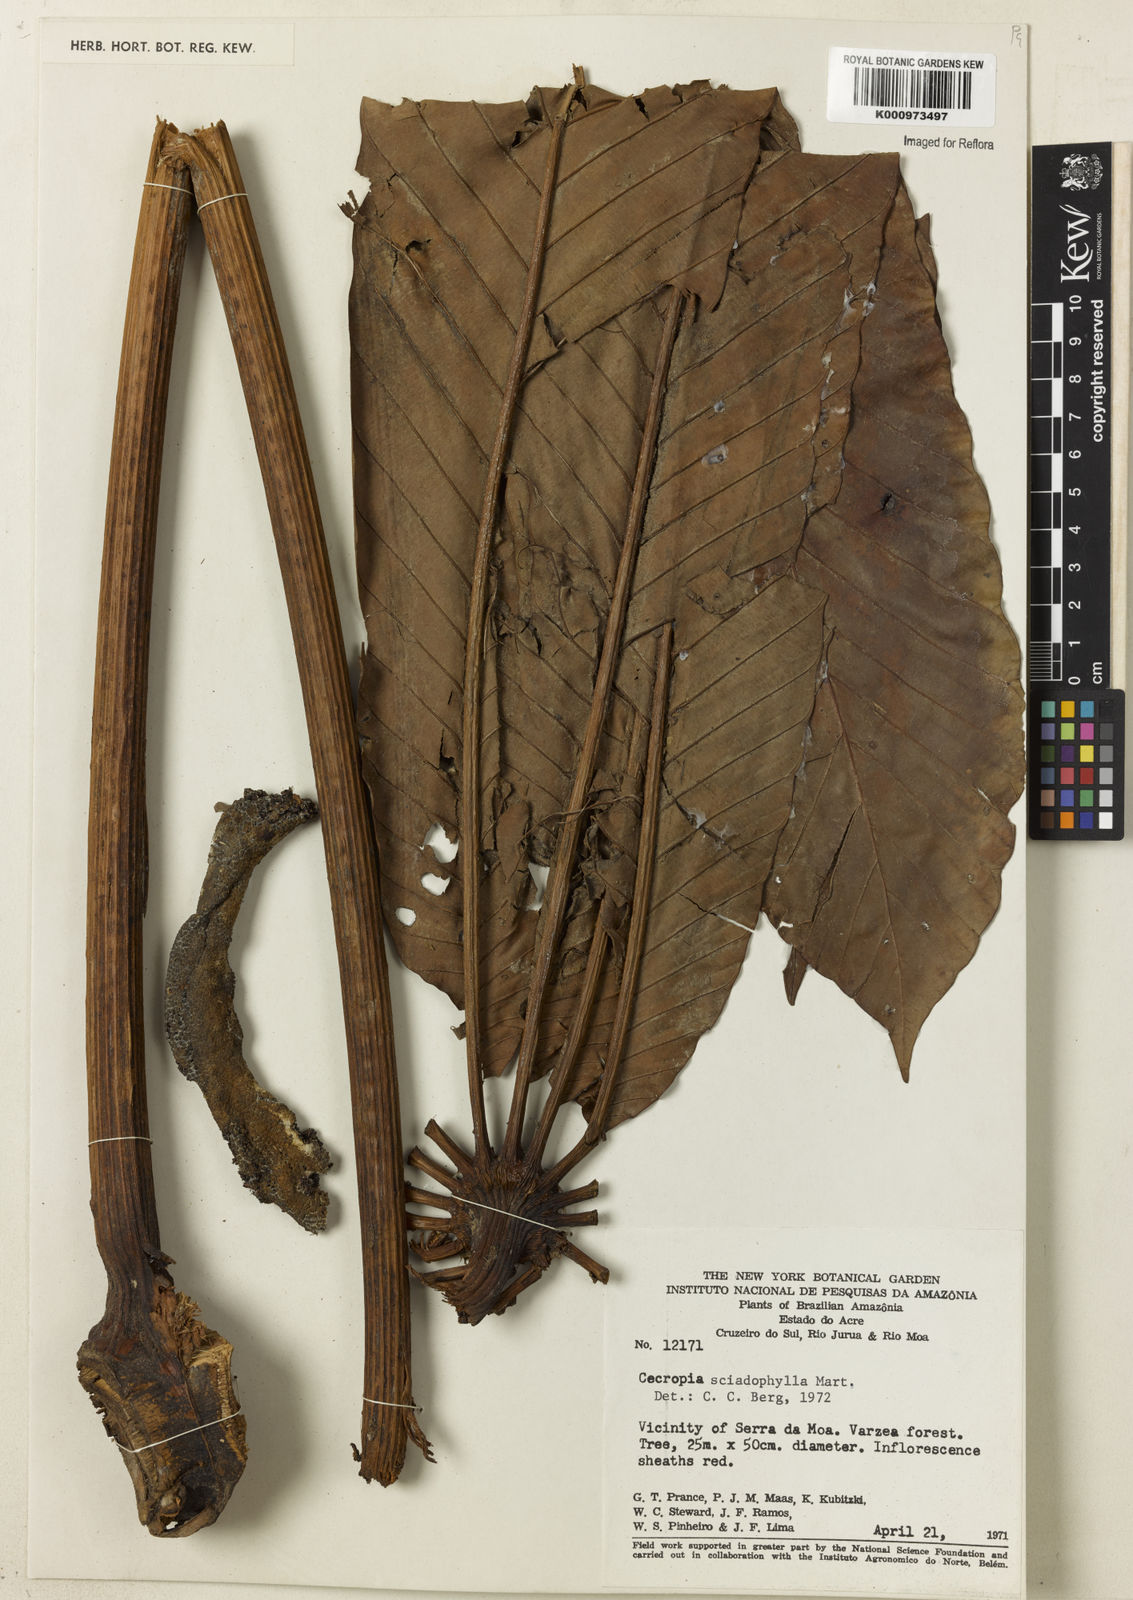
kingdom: Plantae
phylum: Tracheophyta
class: Magnoliopsida
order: Rosales
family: Urticaceae
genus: Cecropia
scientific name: Cecropia sciadophylla
